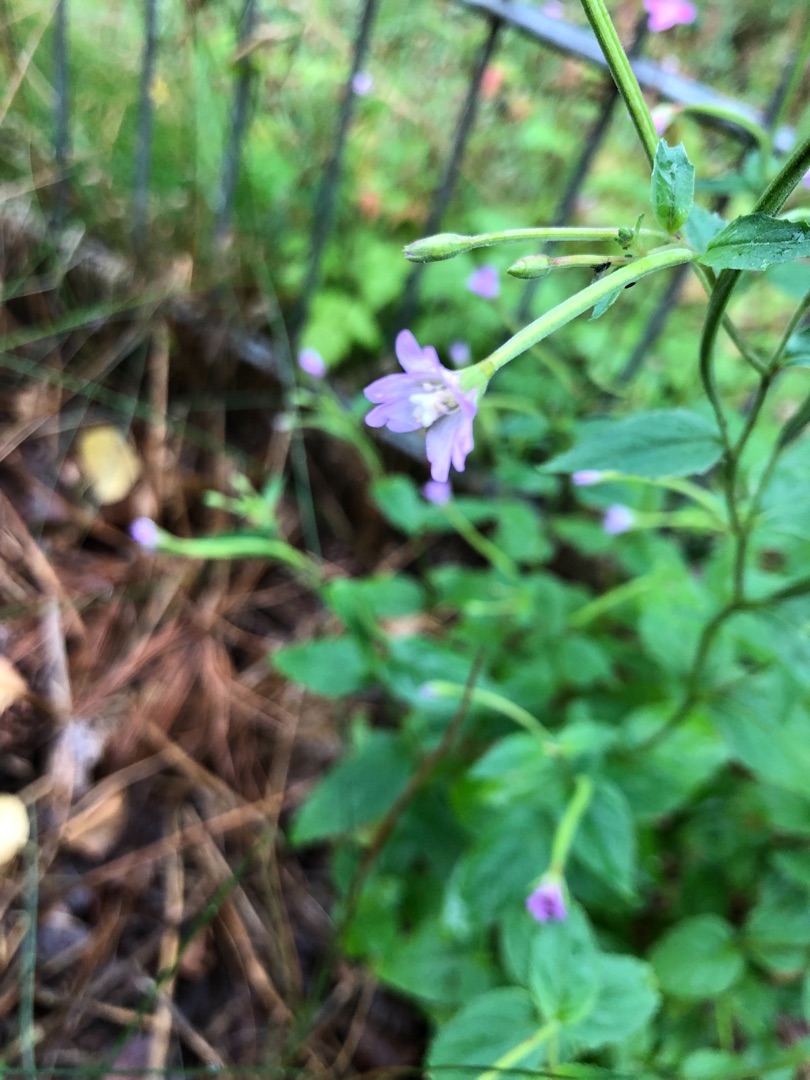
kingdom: Plantae
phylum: Tracheophyta
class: Magnoliopsida
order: Myrtales
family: Onagraceae
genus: Epilobium
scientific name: Epilobium montanum
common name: Glat dueurt
